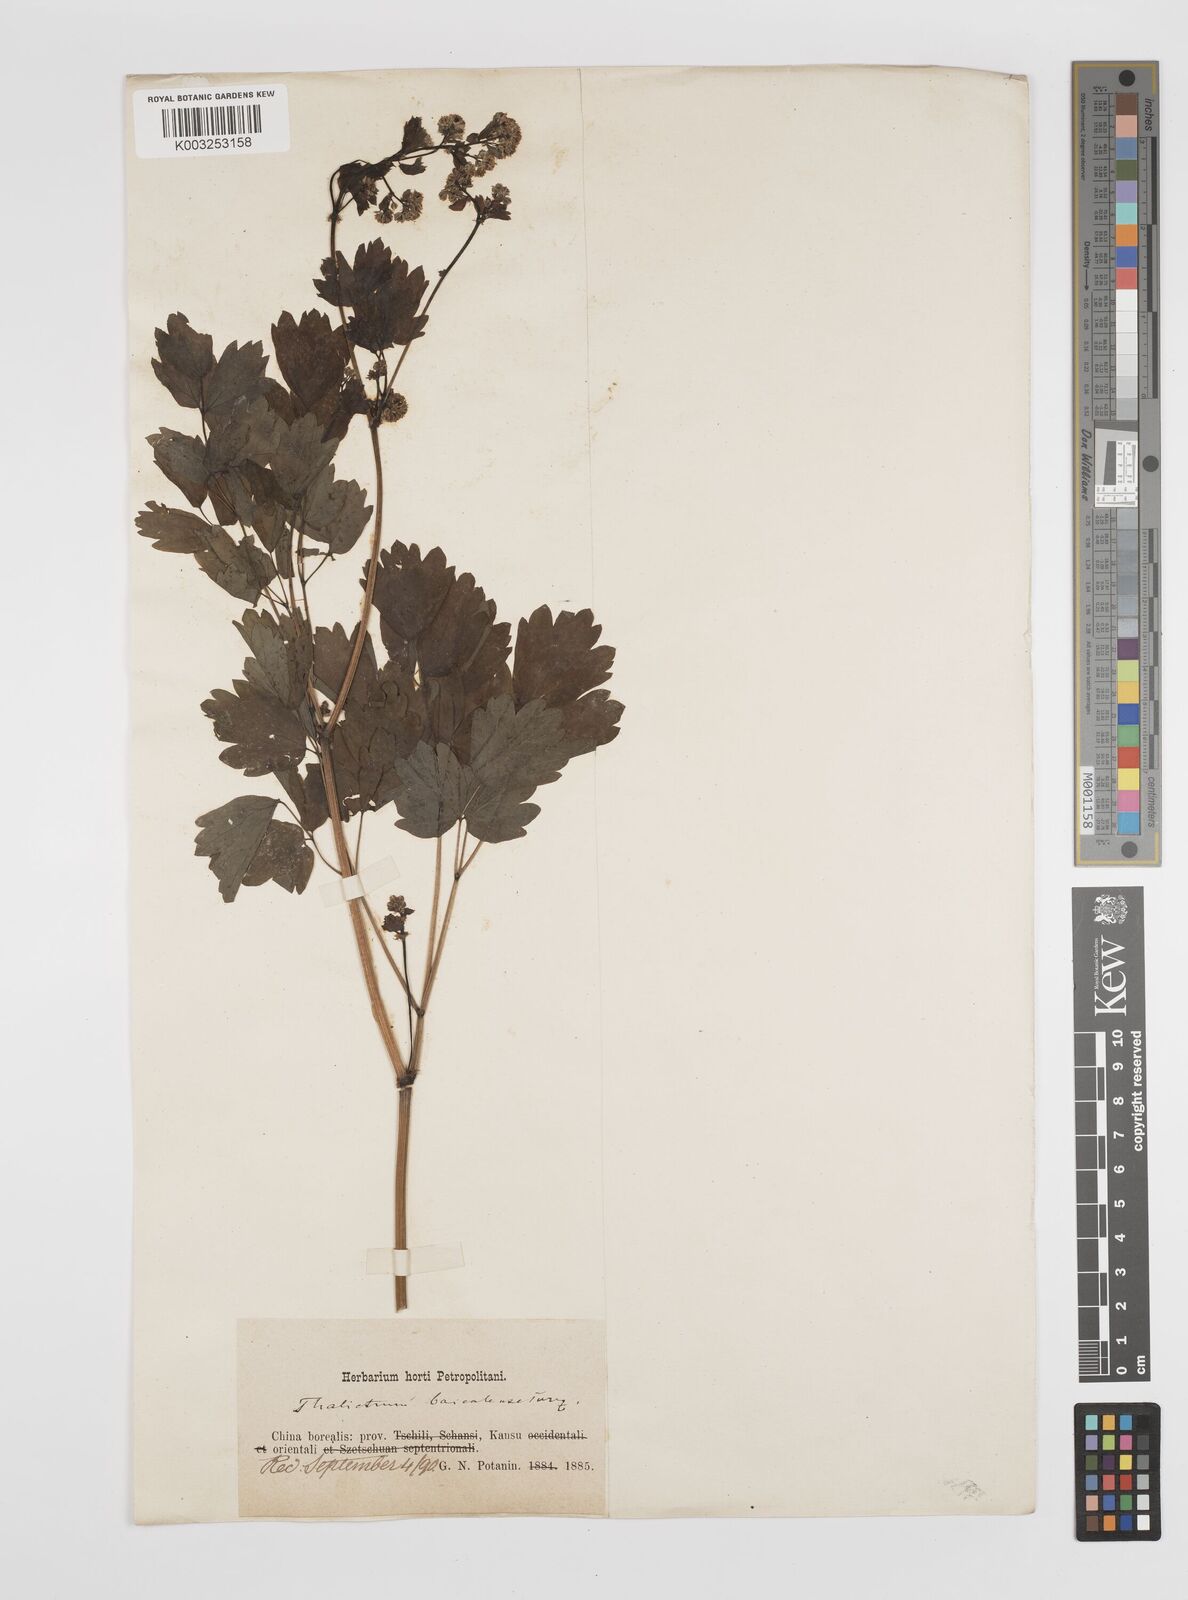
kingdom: Plantae
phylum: Tracheophyta
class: Magnoliopsida
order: Ranunculales
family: Ranunculaceae
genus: Thalictrum
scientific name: Thalictrum baicalense
